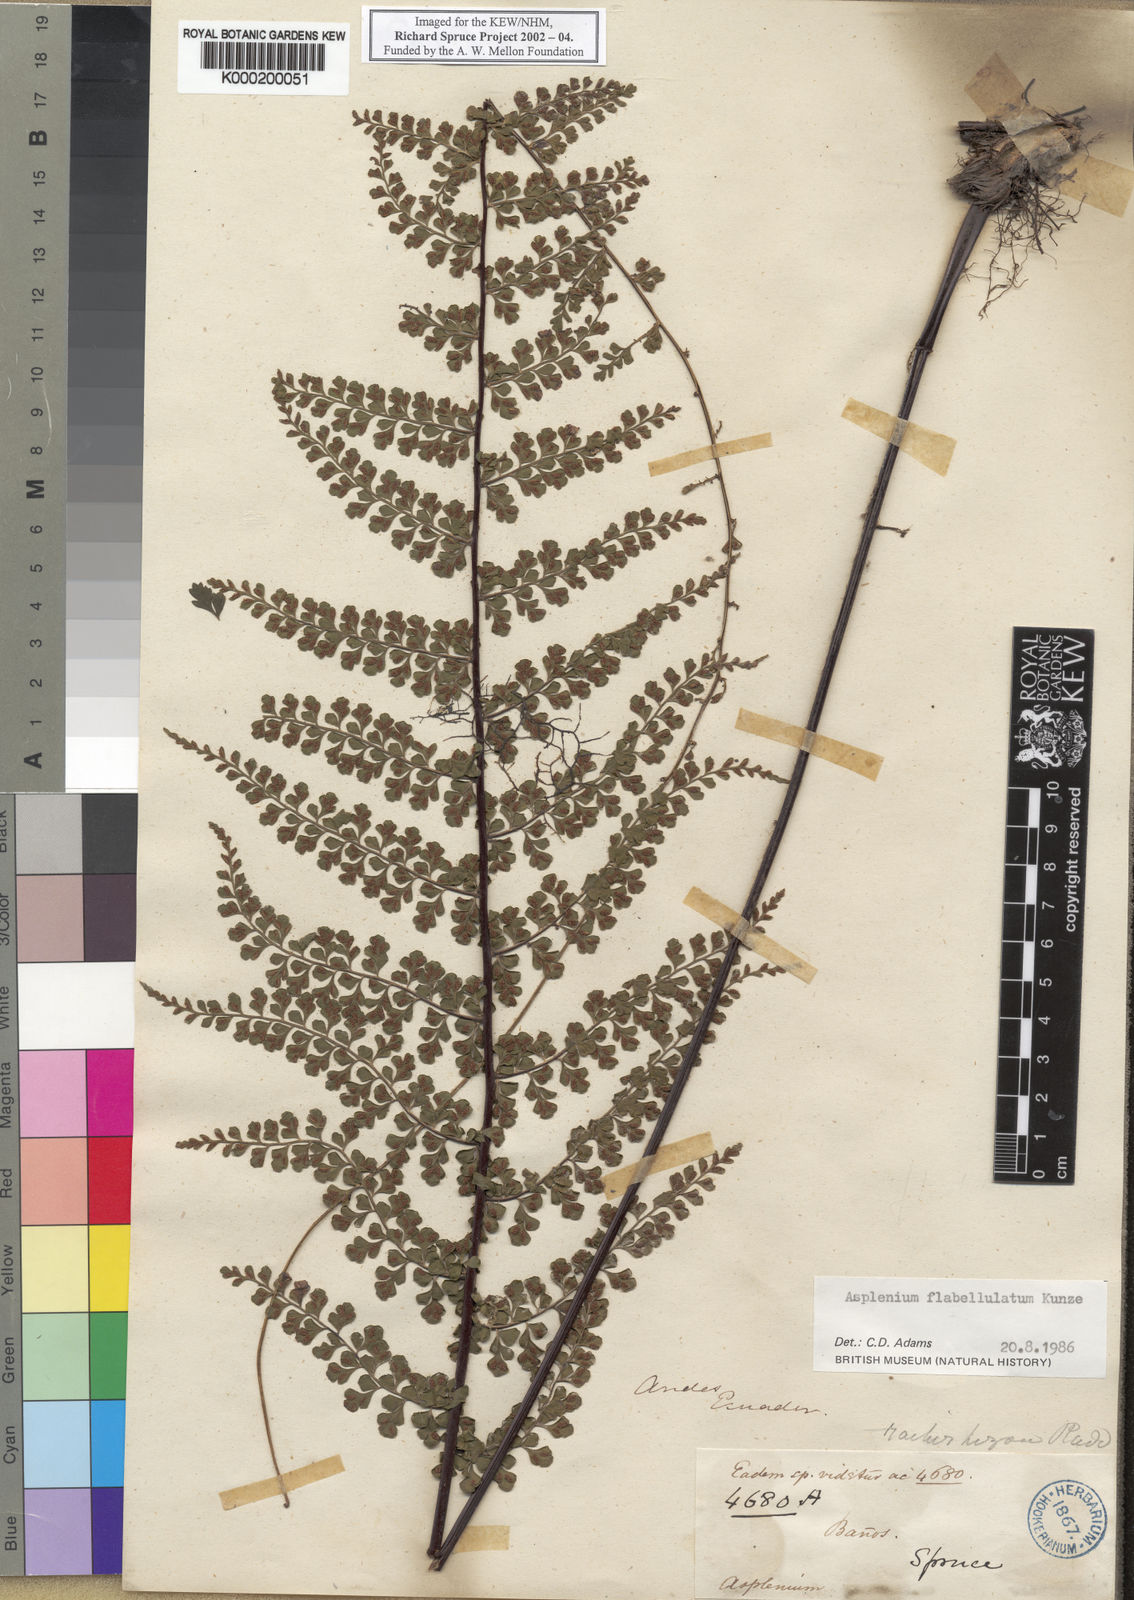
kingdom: Plantae
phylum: Tracheophyta
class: Polypodiopsida
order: Polypodiales
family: Aspleniaceae
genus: Asplenium
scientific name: Asplenium flabellulatum
